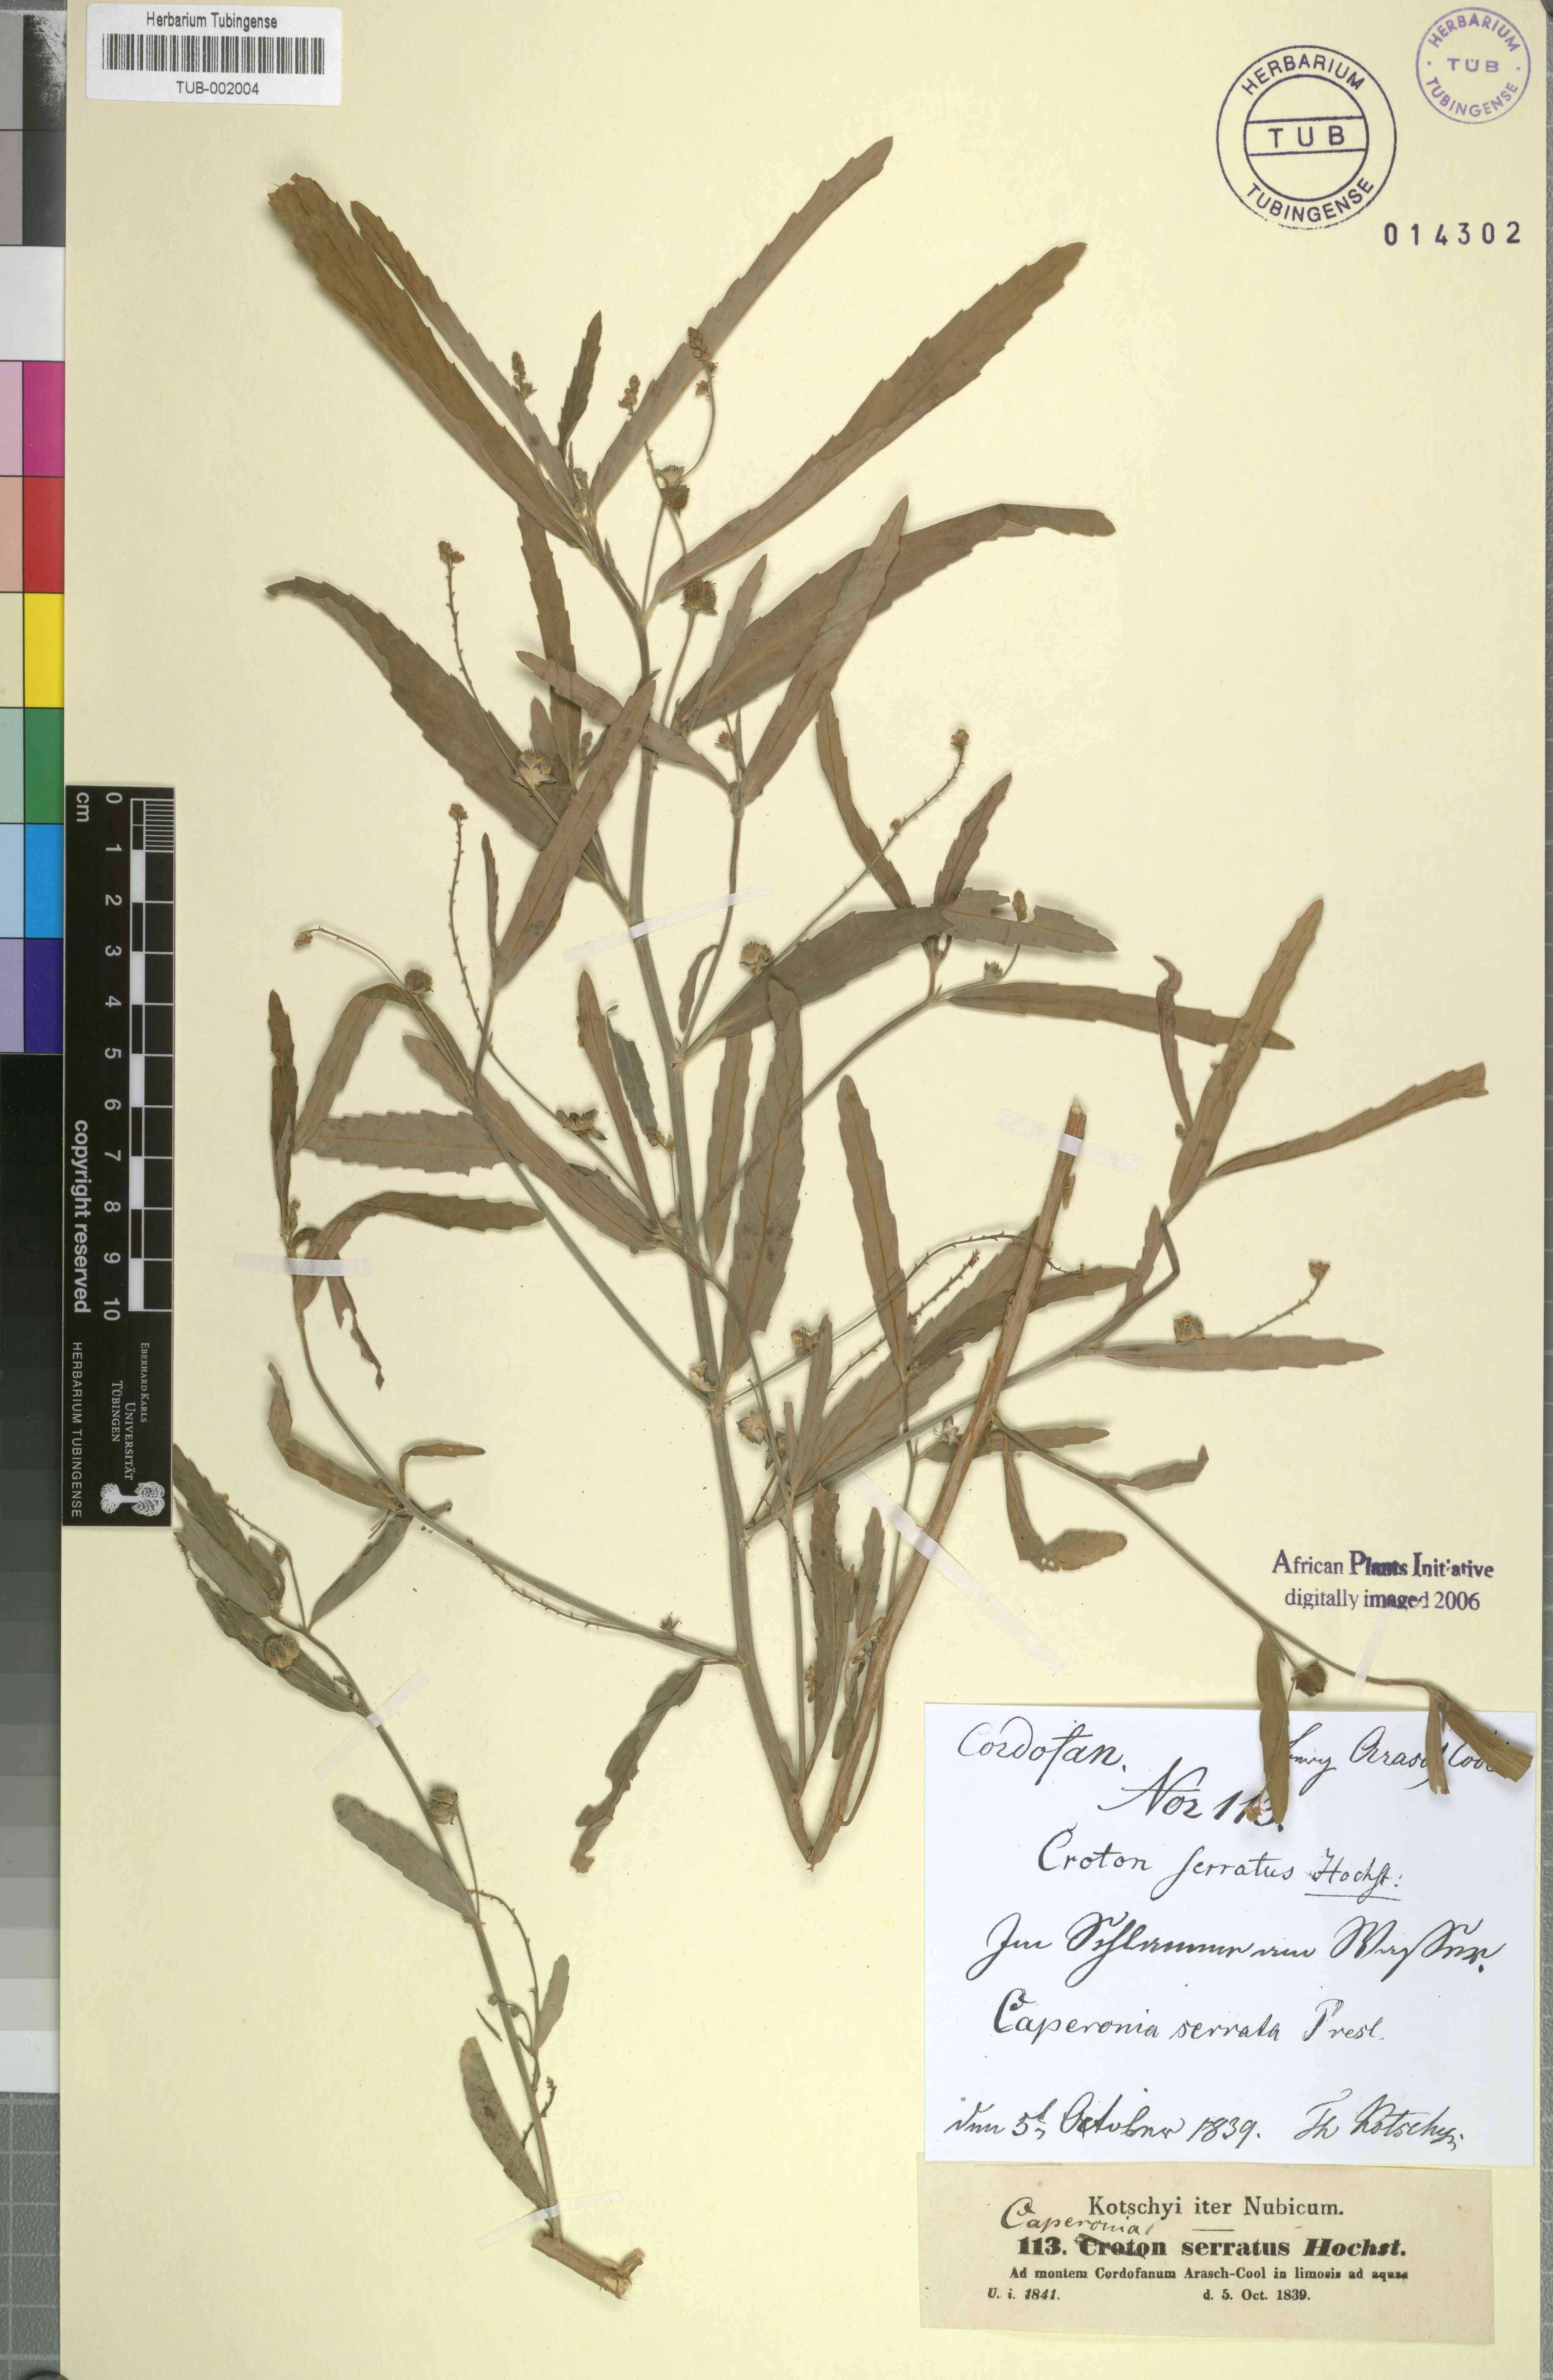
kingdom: Plantae
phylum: Tracheophyta
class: Magnoliopsida
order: Malpighiales
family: Euphorbiaceae
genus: Caperonia
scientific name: Caperonia serrata
